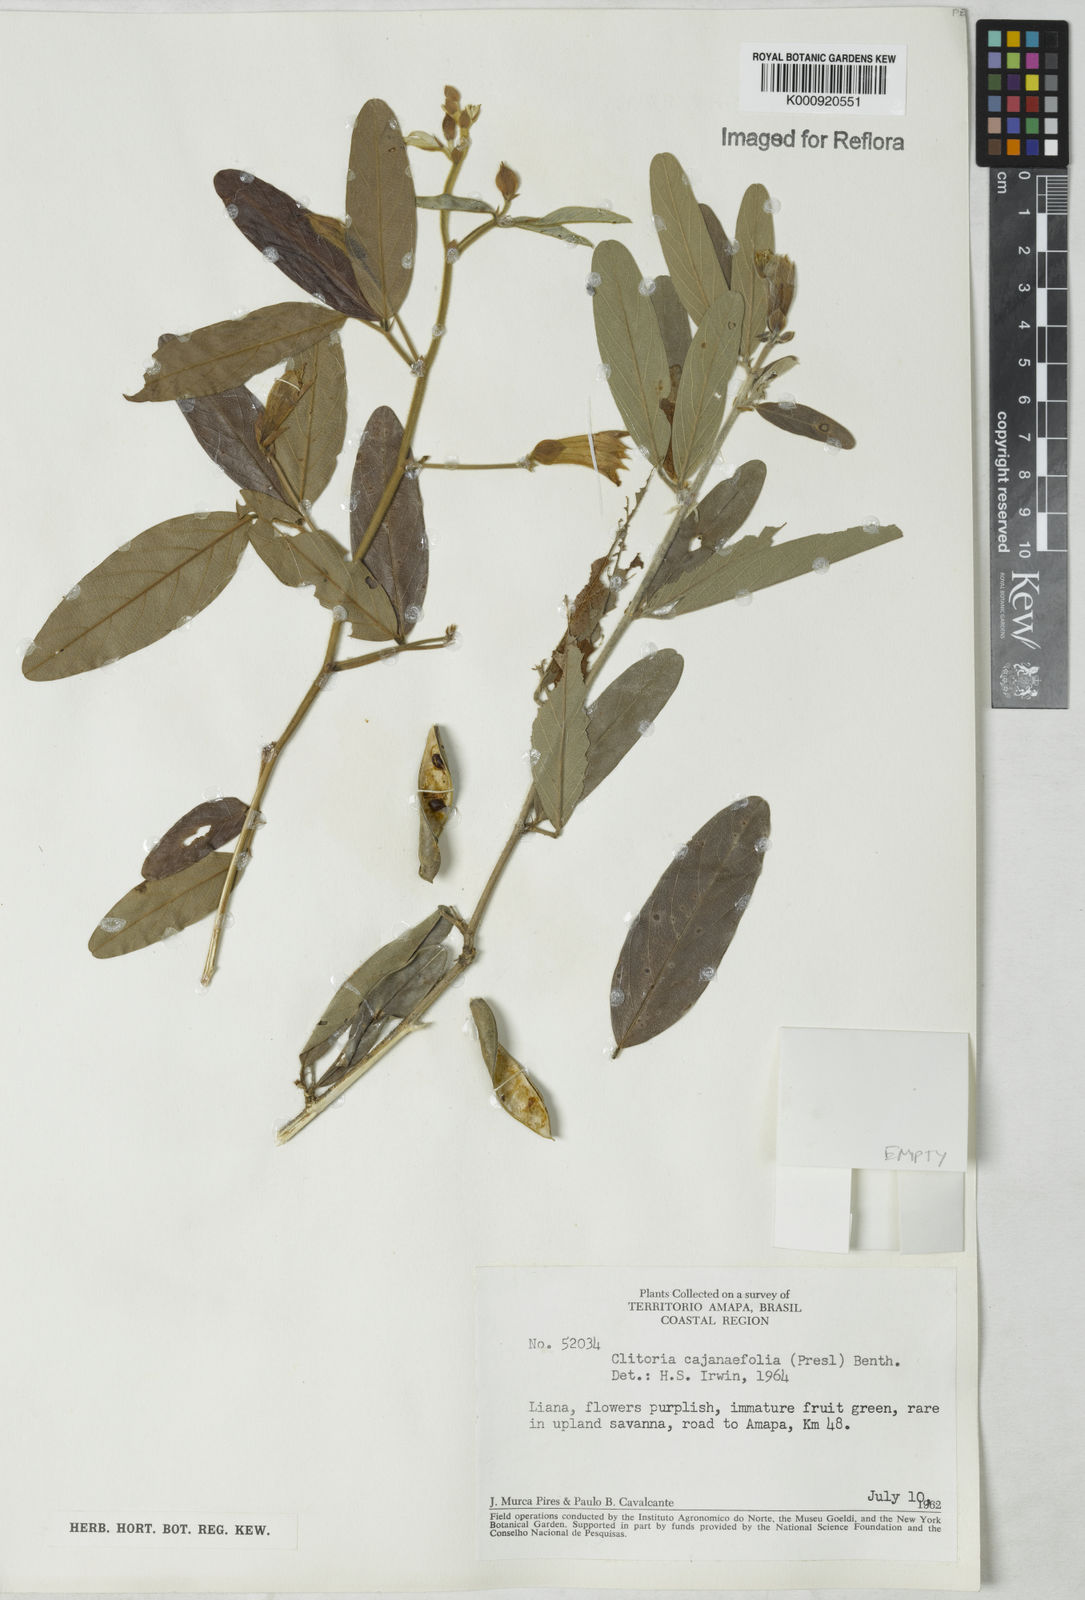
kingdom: Plantae
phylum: Tracheophyta
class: Magnoliopsida
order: Fabales
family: Fabaceae
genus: Clitoria
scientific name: Clitoria laurifolia
